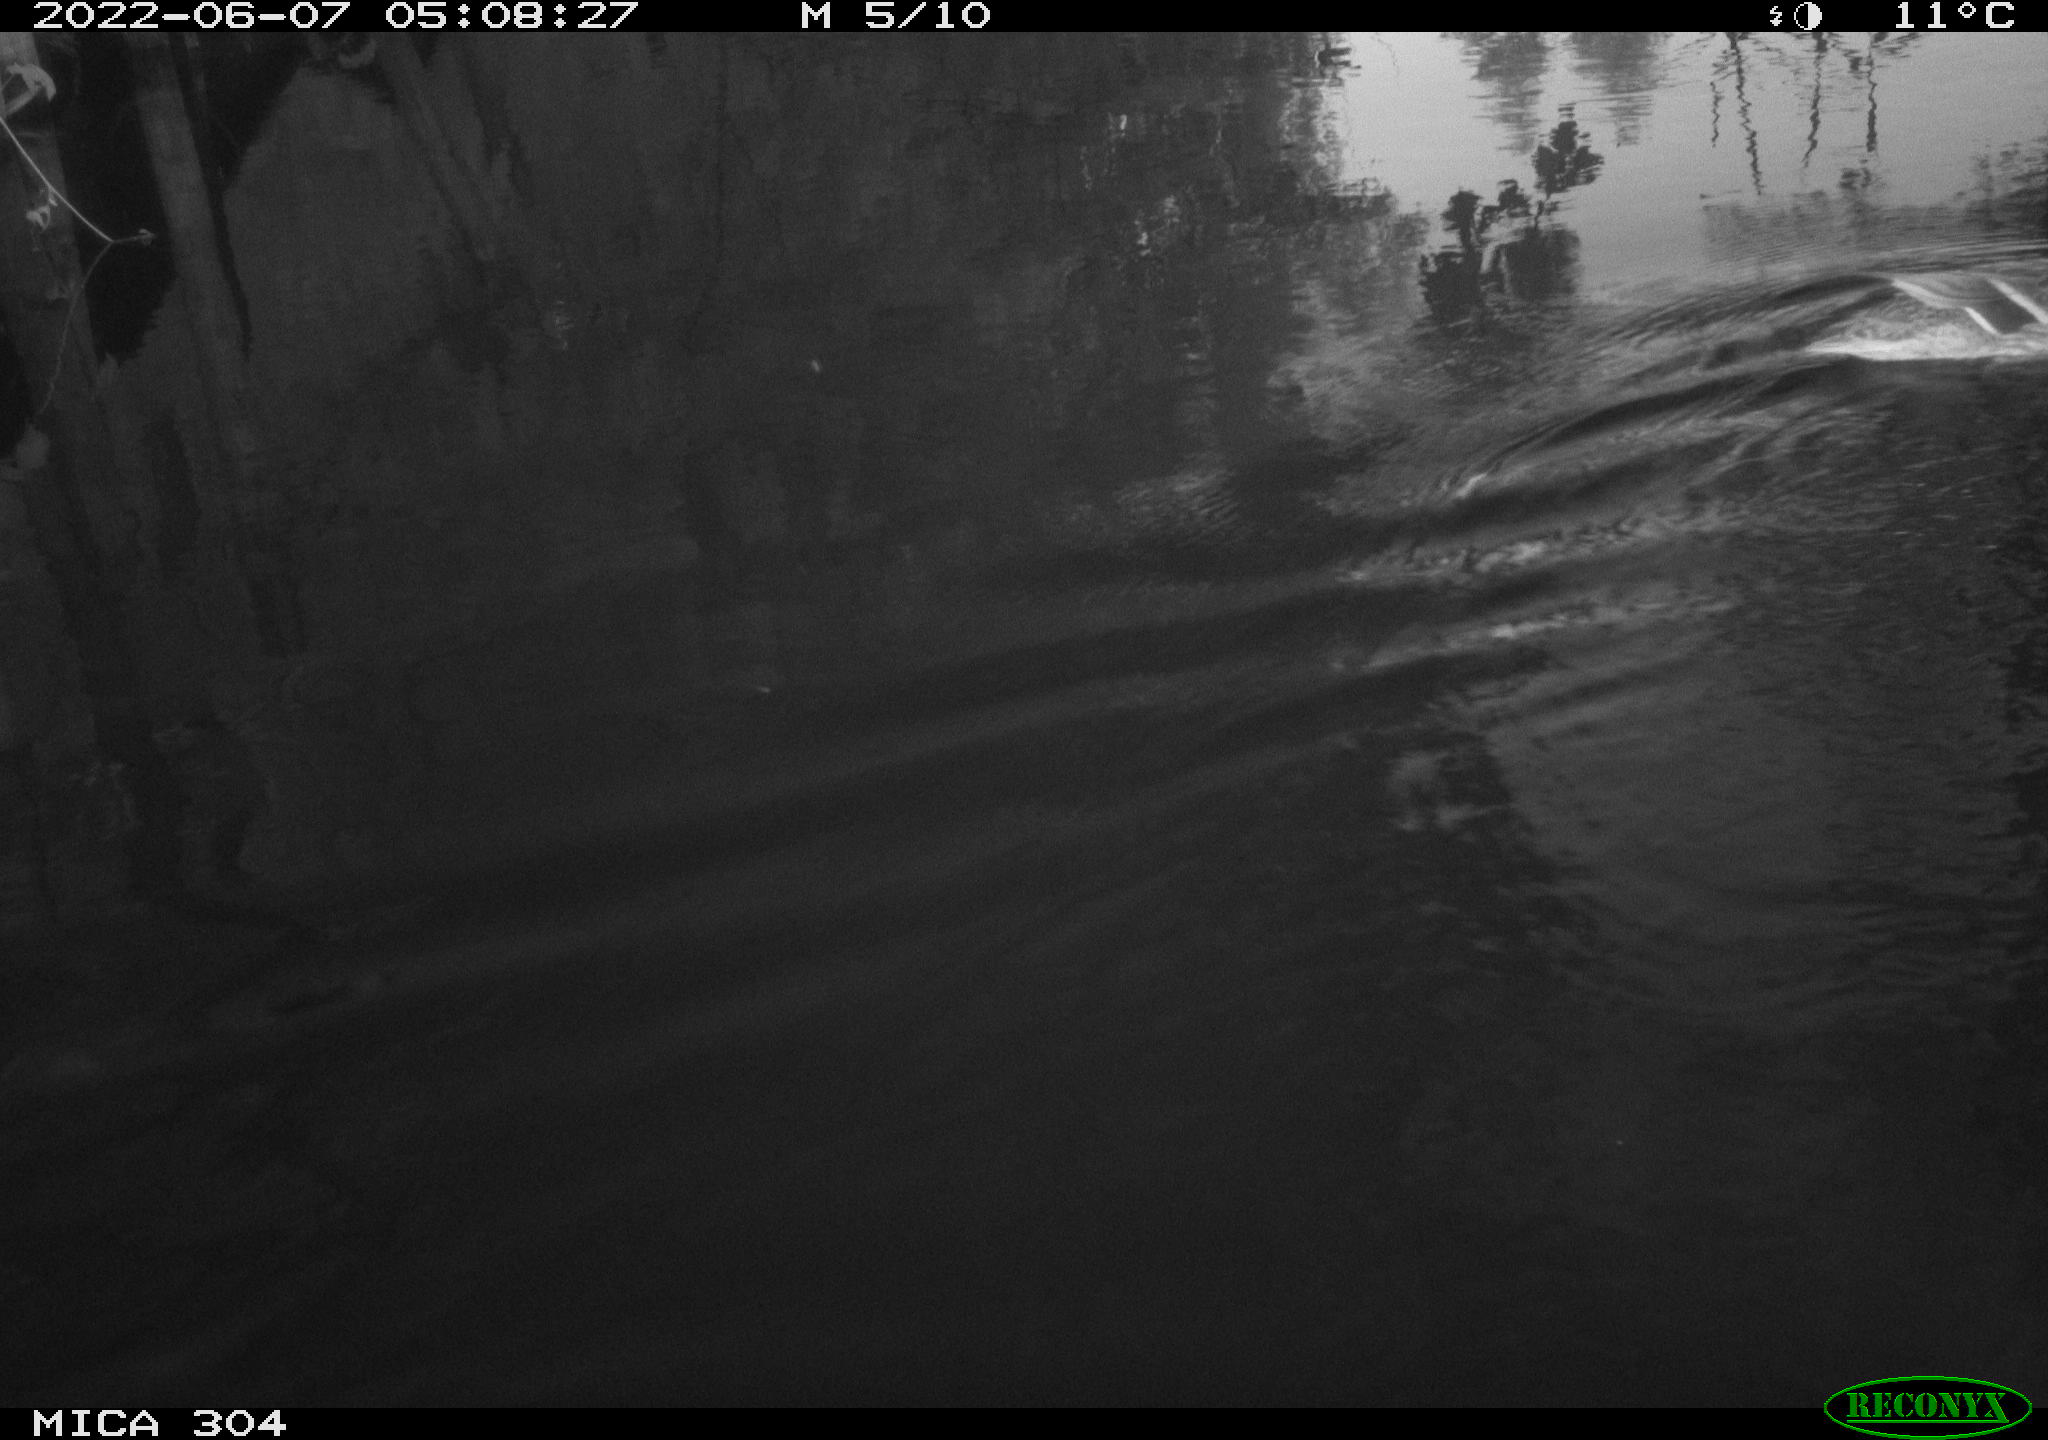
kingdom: Animalia
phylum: Chordata
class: Aves
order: Anseriformes
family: Anatidae
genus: Anas
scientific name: Anas platyrhynchos
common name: Mallard
